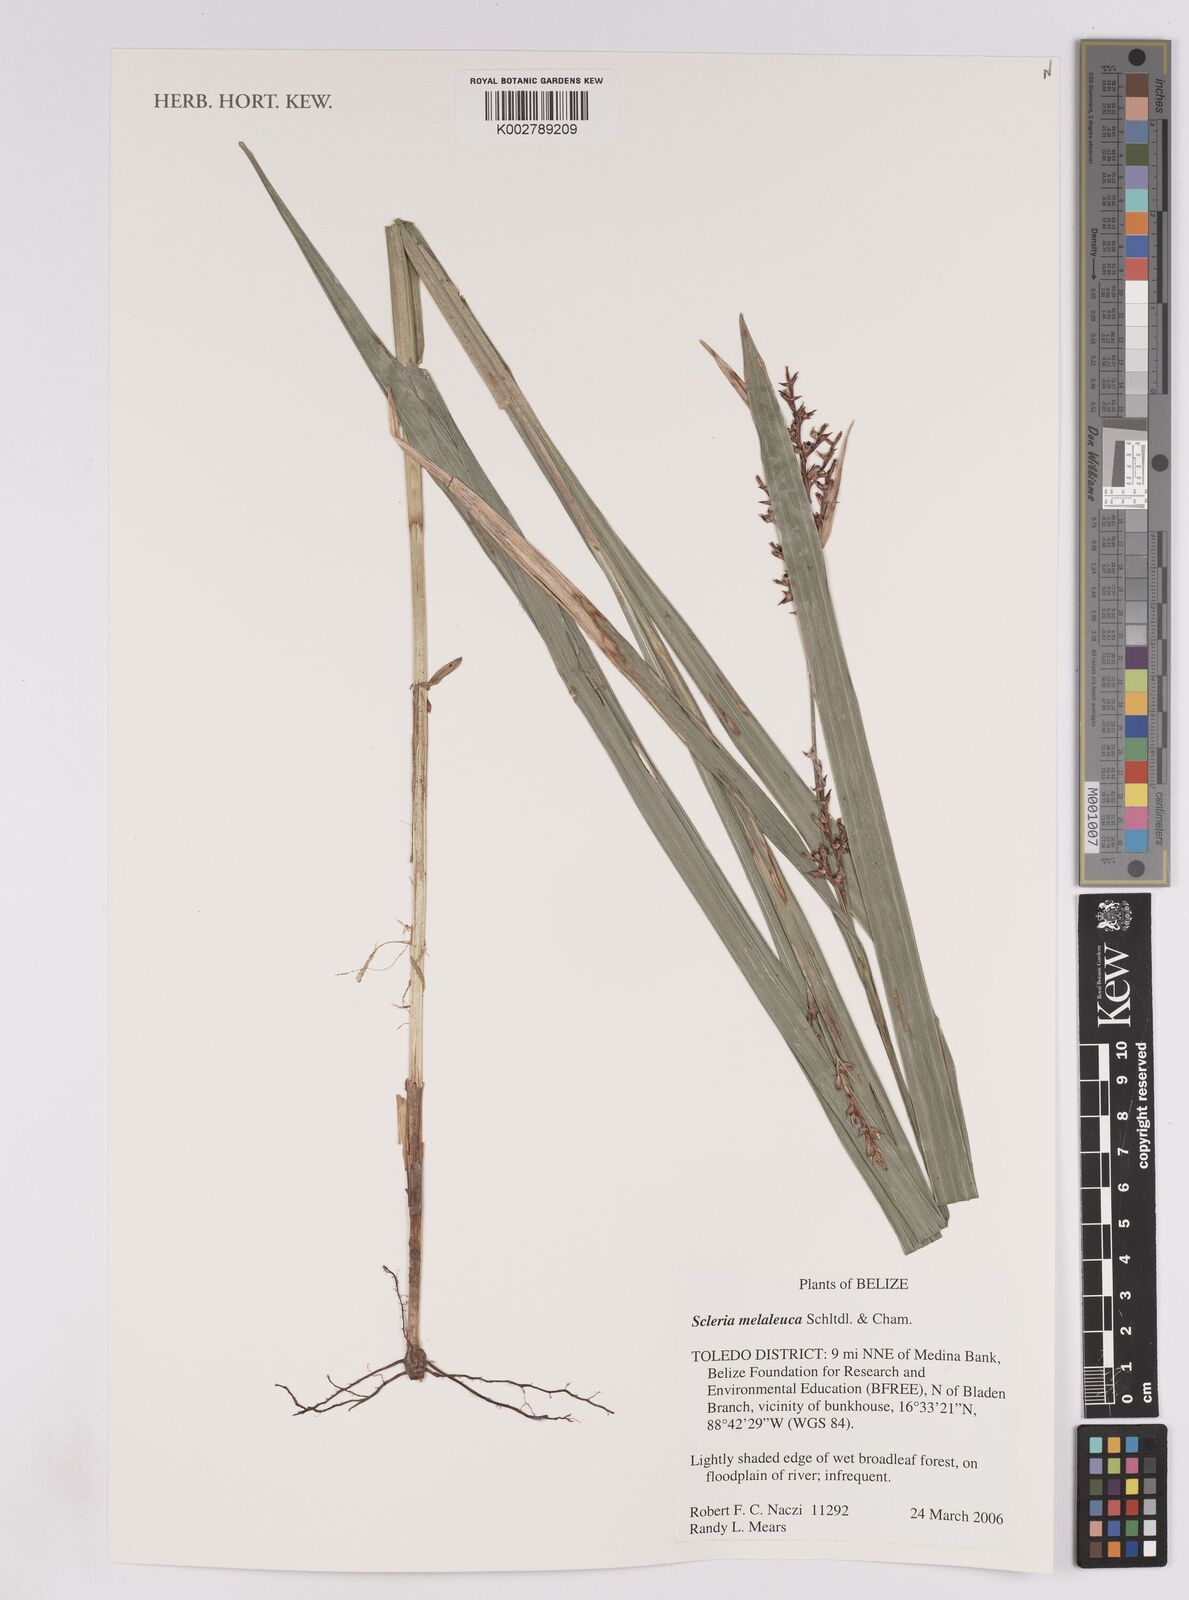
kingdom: Plantae
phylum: Tracheophyta
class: Liliopsida
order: Poales
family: Cyperaceae
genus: Scleria
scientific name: Scleria gaertneri
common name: Cortadera blanca
